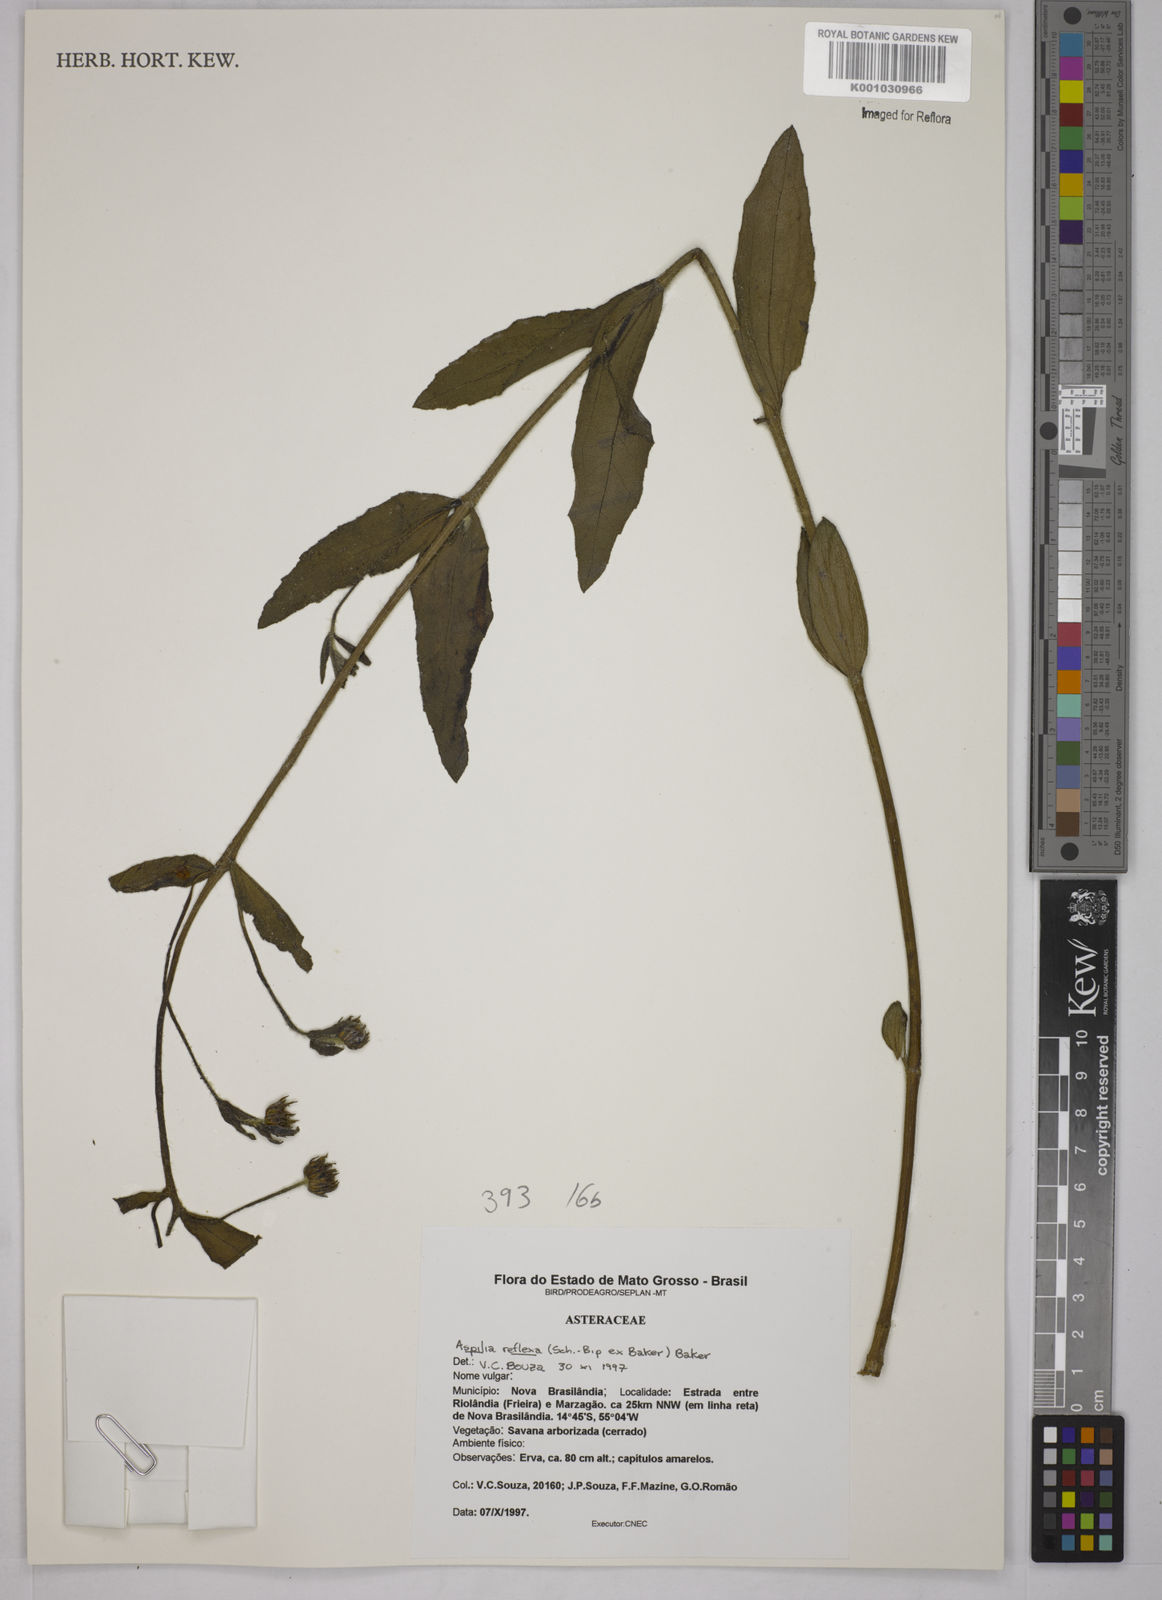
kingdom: Plantae
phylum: Tracheophyta
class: Magnoliopsida
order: Asterales
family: Asteraceae
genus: Wedelia
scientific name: Wedelia reflexa
